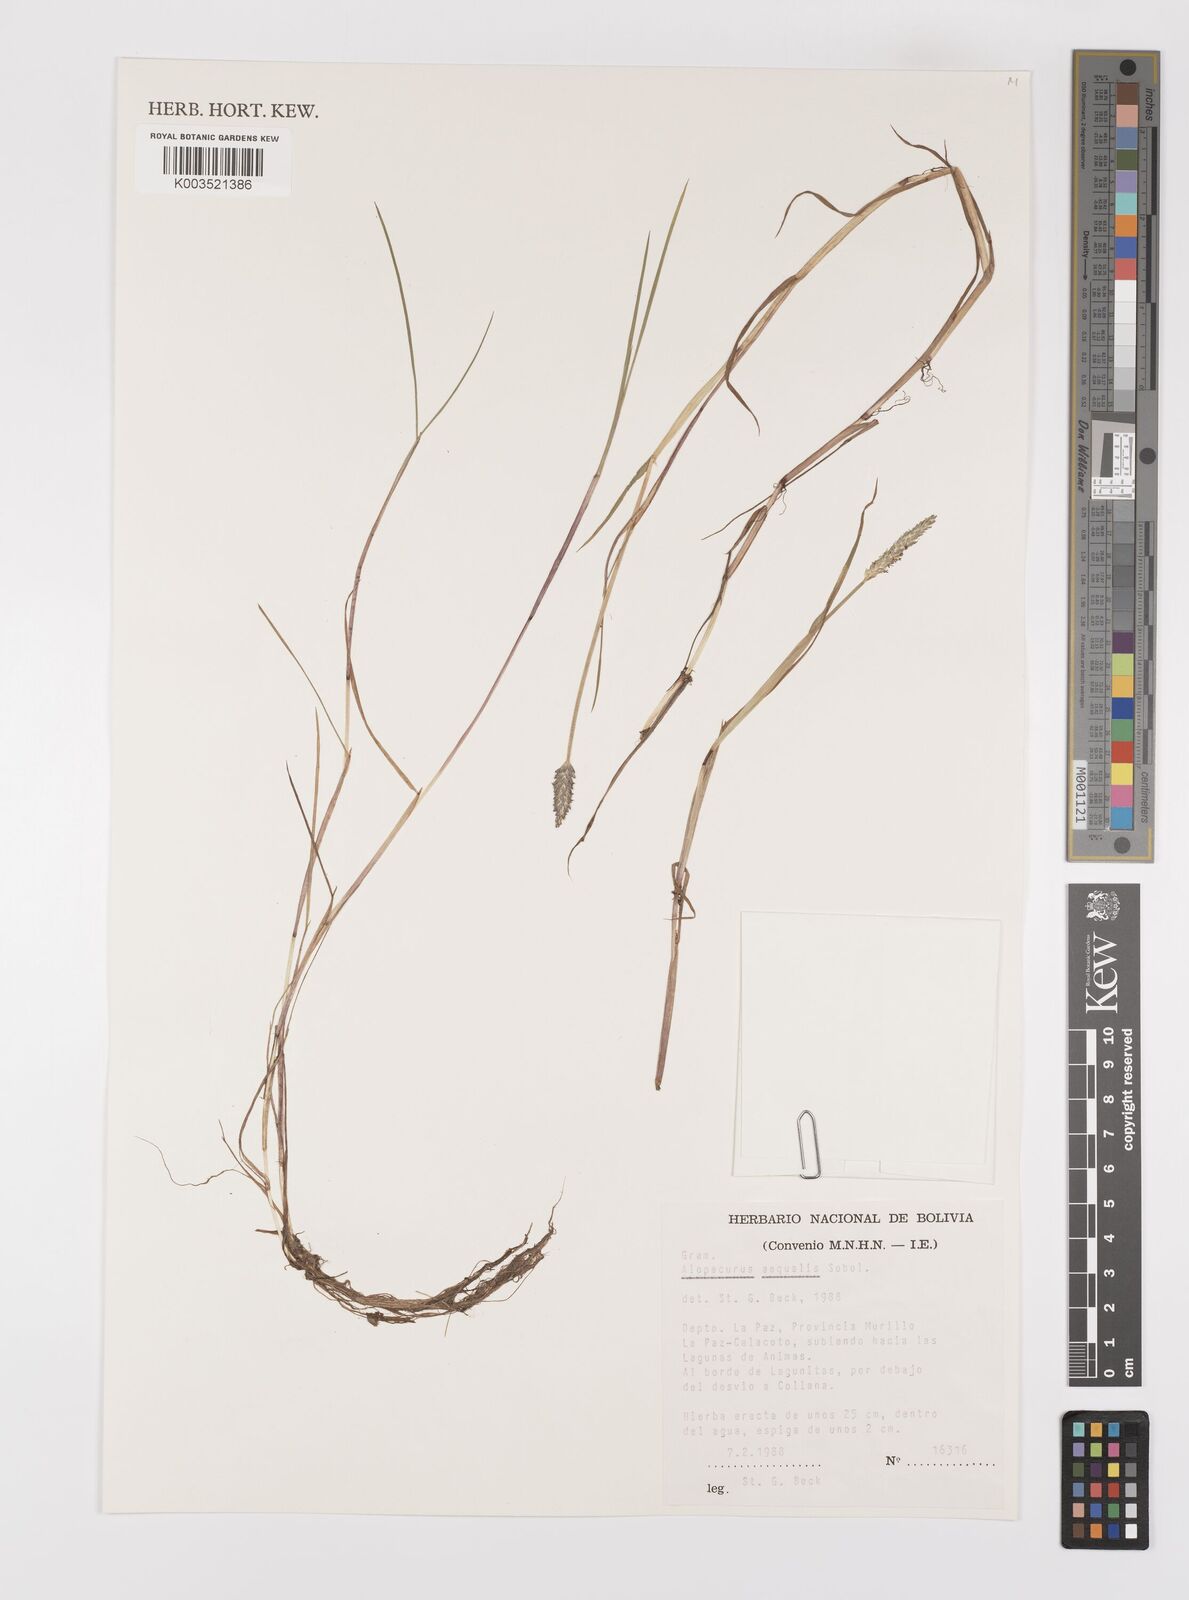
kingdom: Plantae
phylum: Tracheophyta
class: Liliopsida
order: Poales
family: Poaceae
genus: Alopecurus
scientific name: Alopecurus hitchcockii
